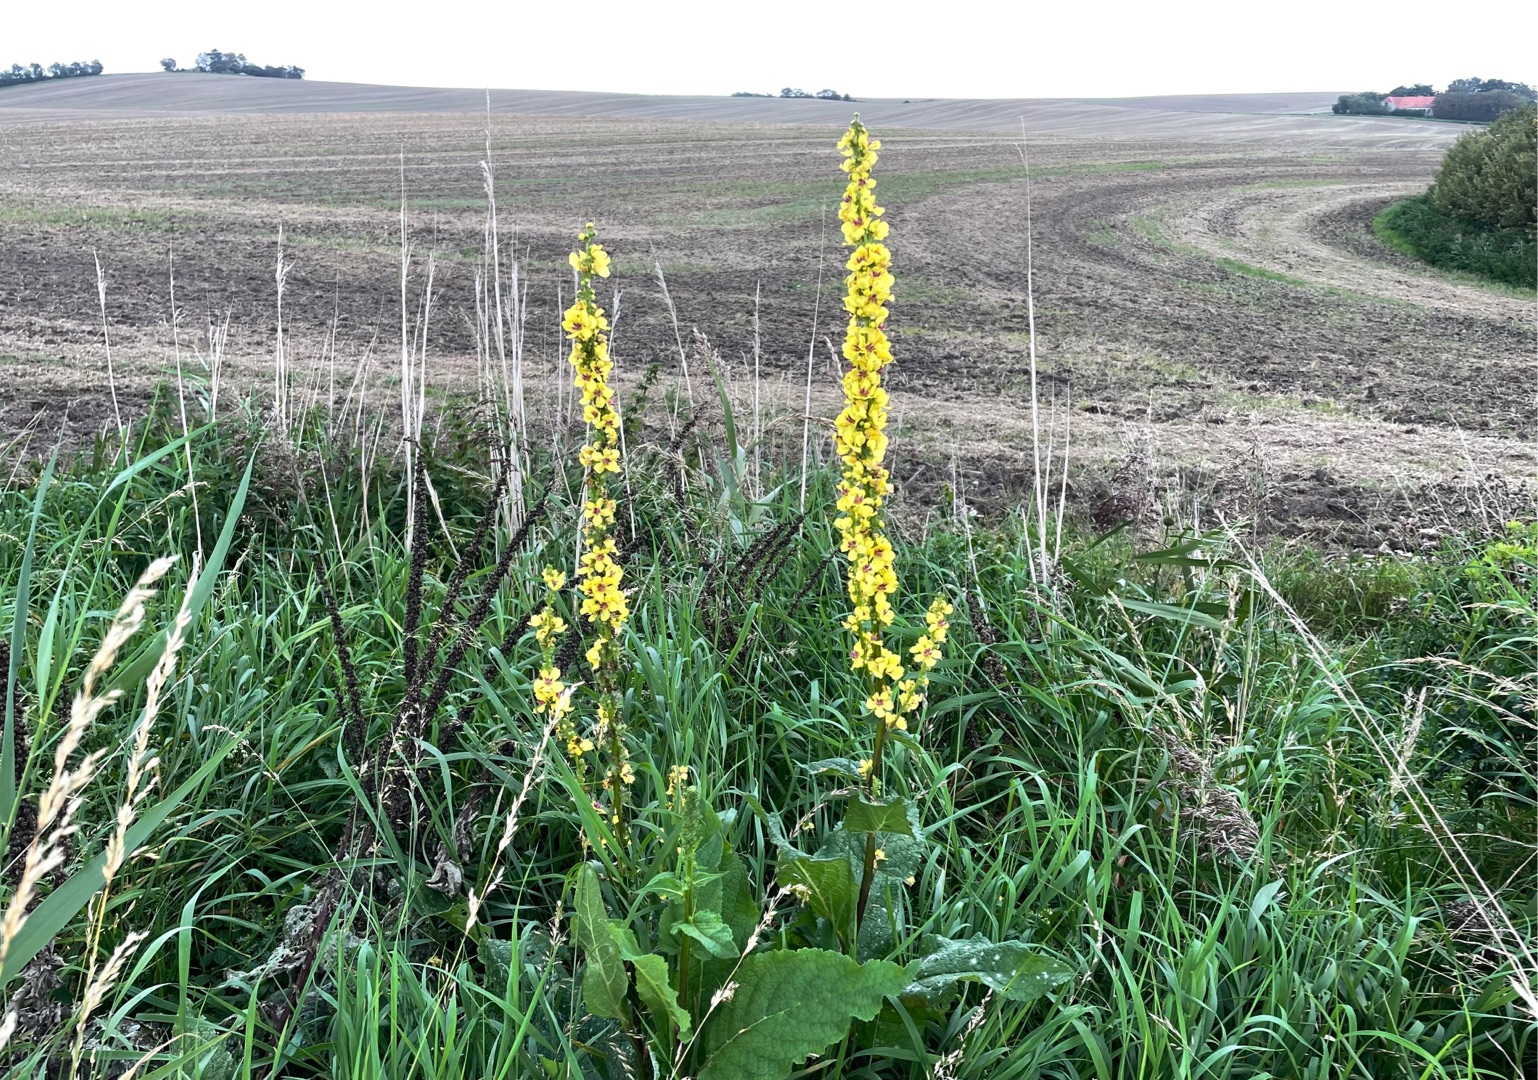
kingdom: Plantae
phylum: Tracheophyta
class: Magnoliopsida
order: Lamiales
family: Scrophulariaceae
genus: Verbascum
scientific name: Verbascum nigrum
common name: Mørk kongelys
